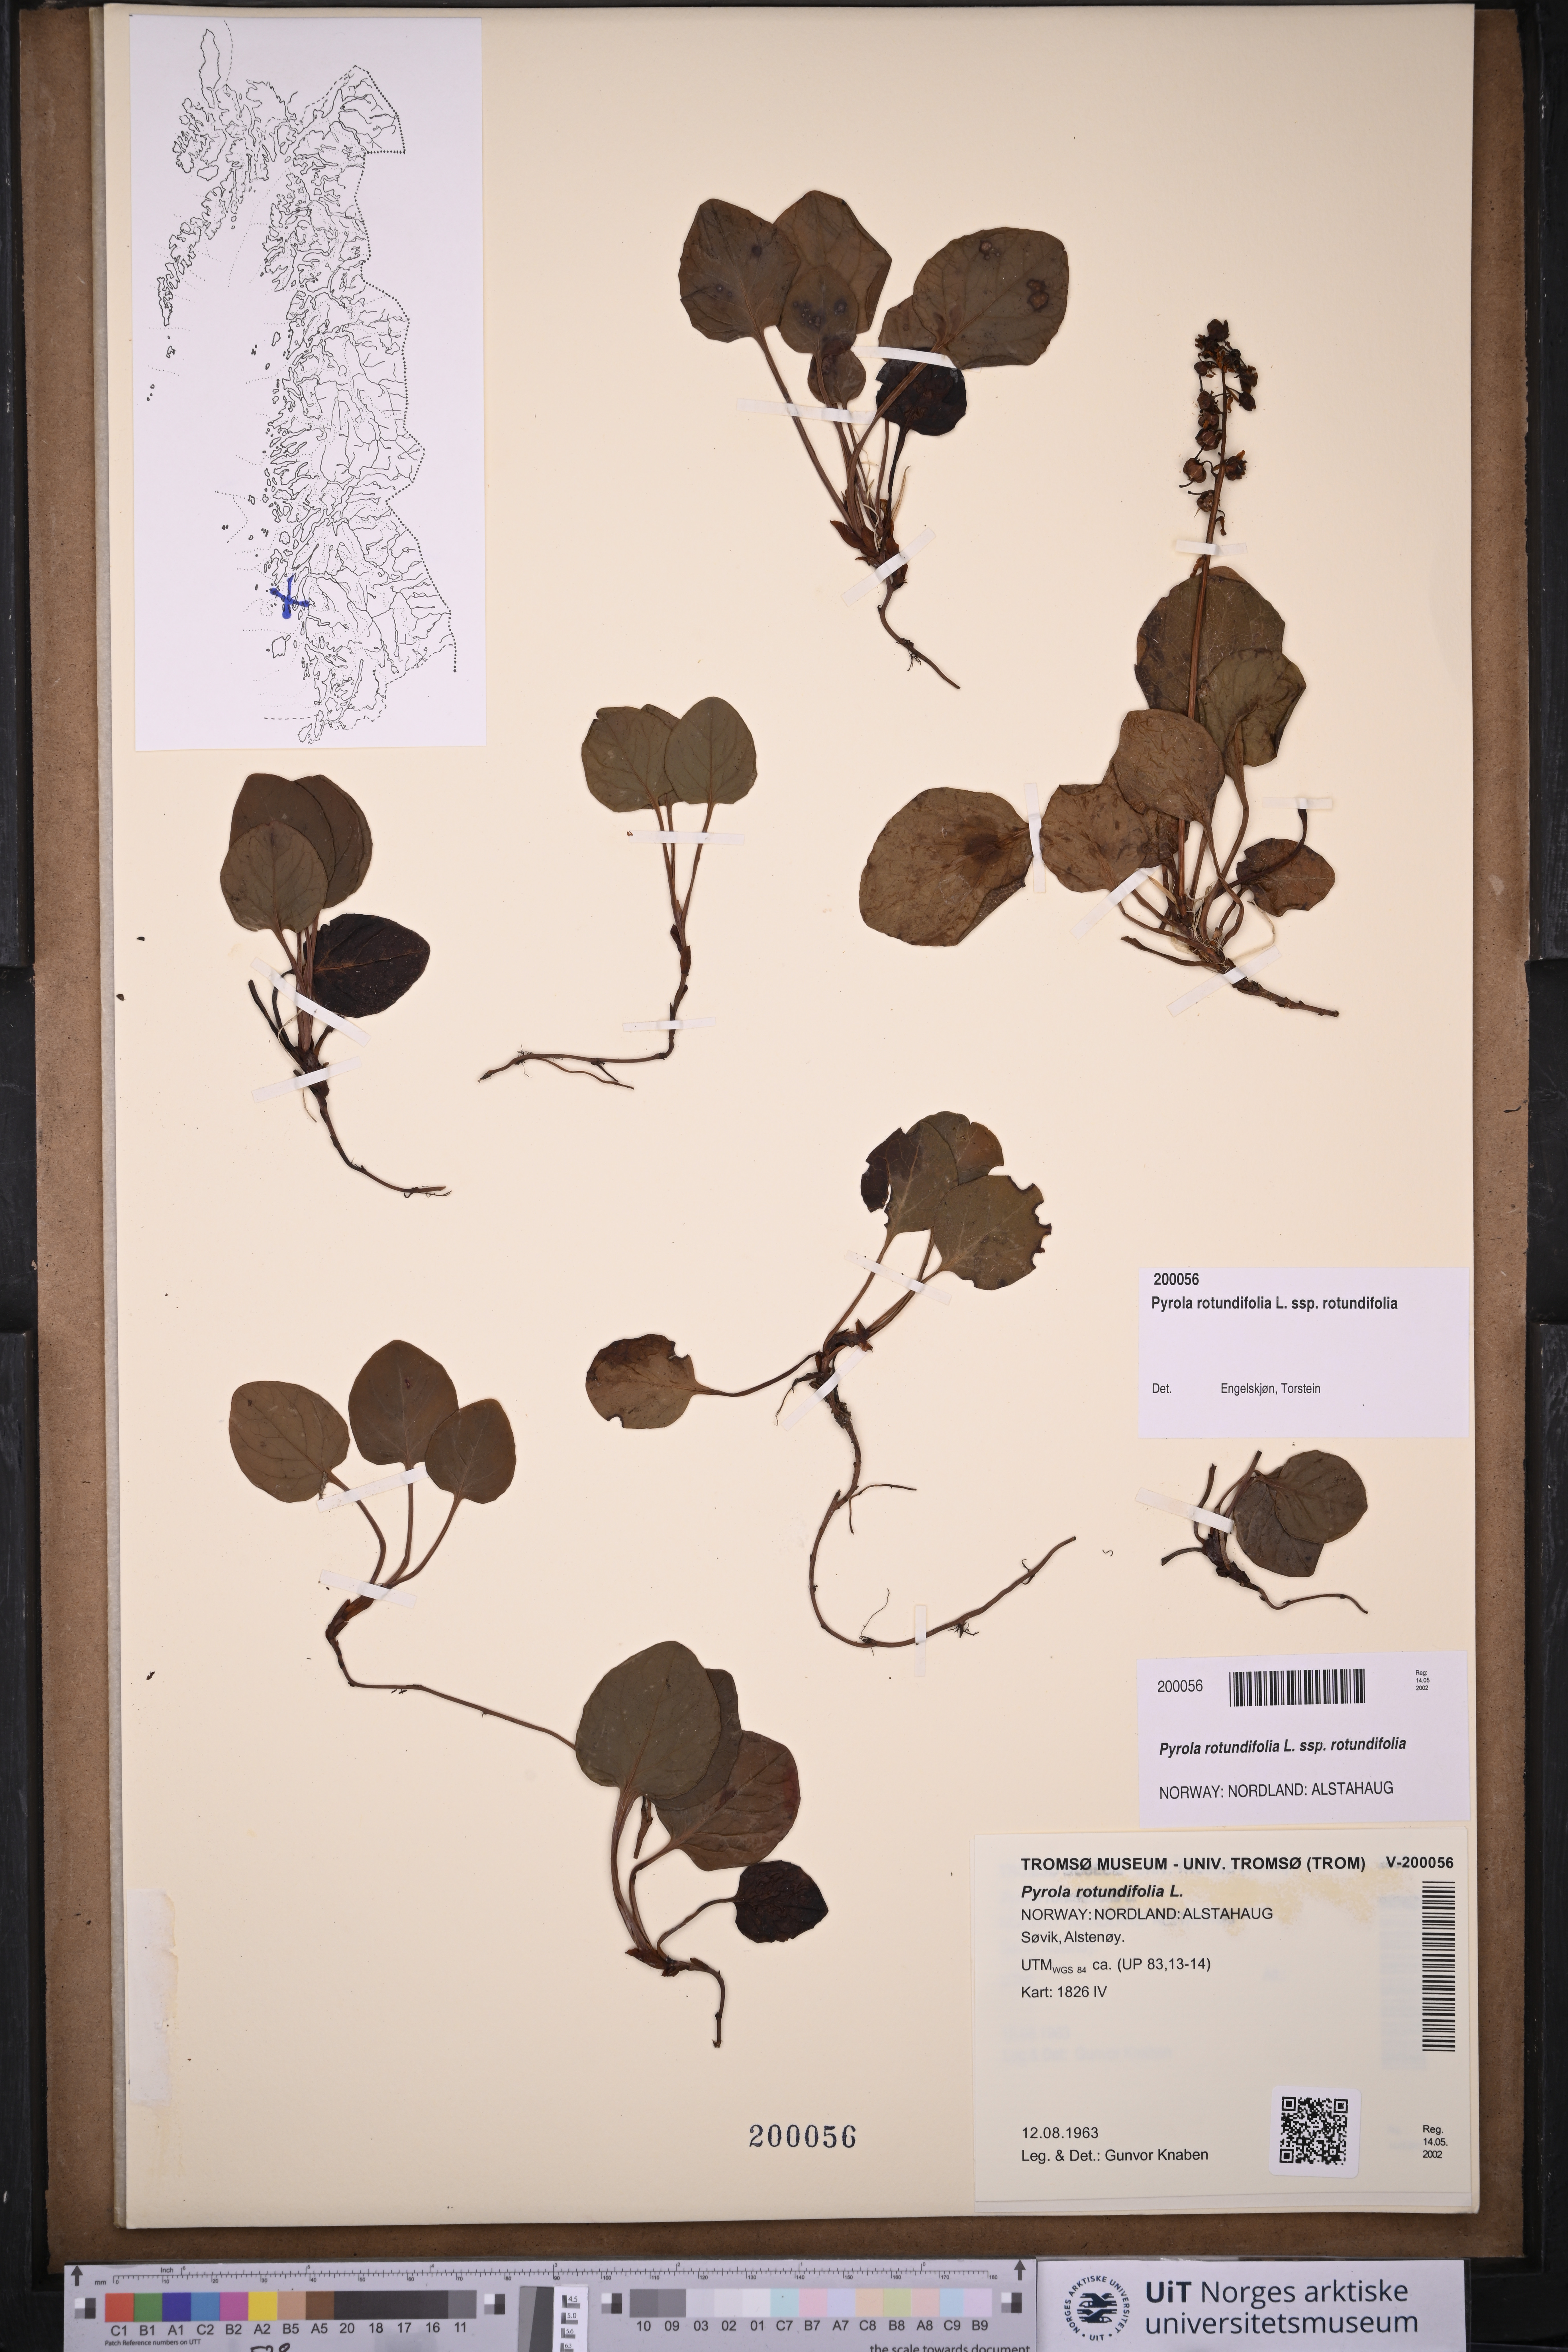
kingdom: Plantae
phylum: Tracheophyta
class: Magnoliopsida
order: Ericales
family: Ericaceae
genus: Pyrola
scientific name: Pyrola rotundifolia
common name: Round-leaved wintergreen
